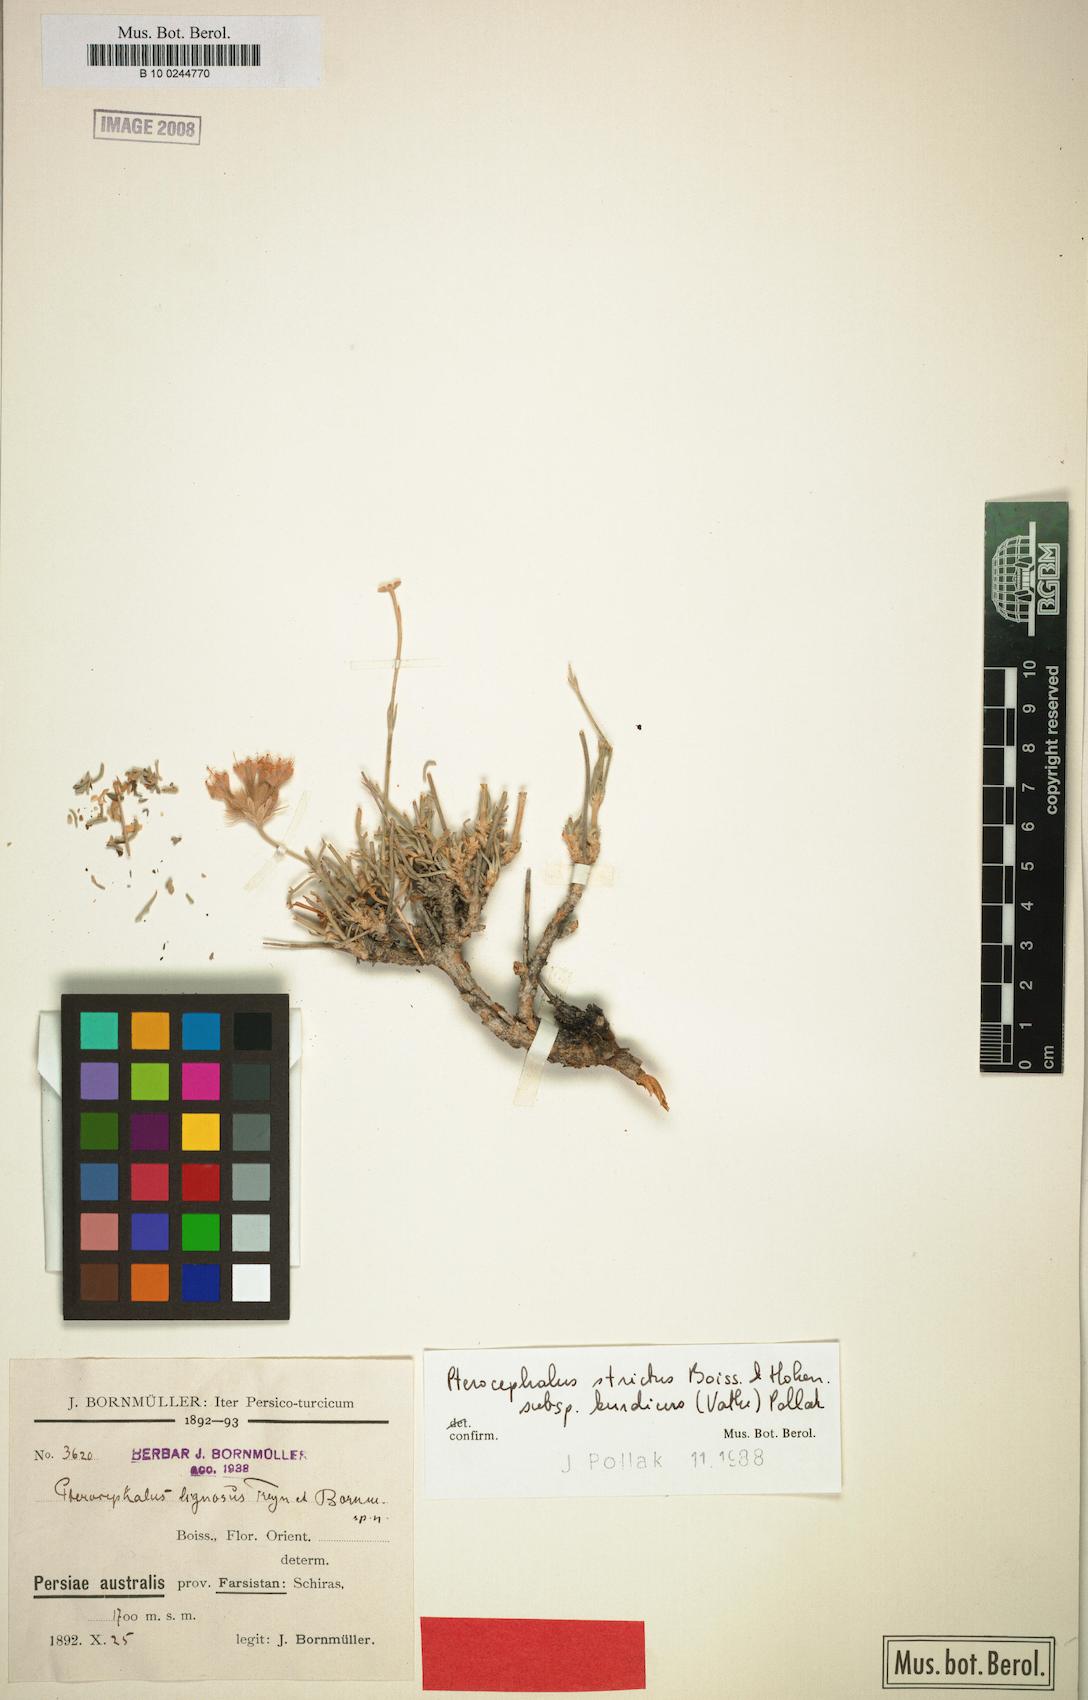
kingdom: Plantae
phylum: Tracheophyta
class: Magnoliopsida
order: Dipsacales
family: Caprifoliaceae
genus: Pterocephalus
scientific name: Pterocephalus strictus
